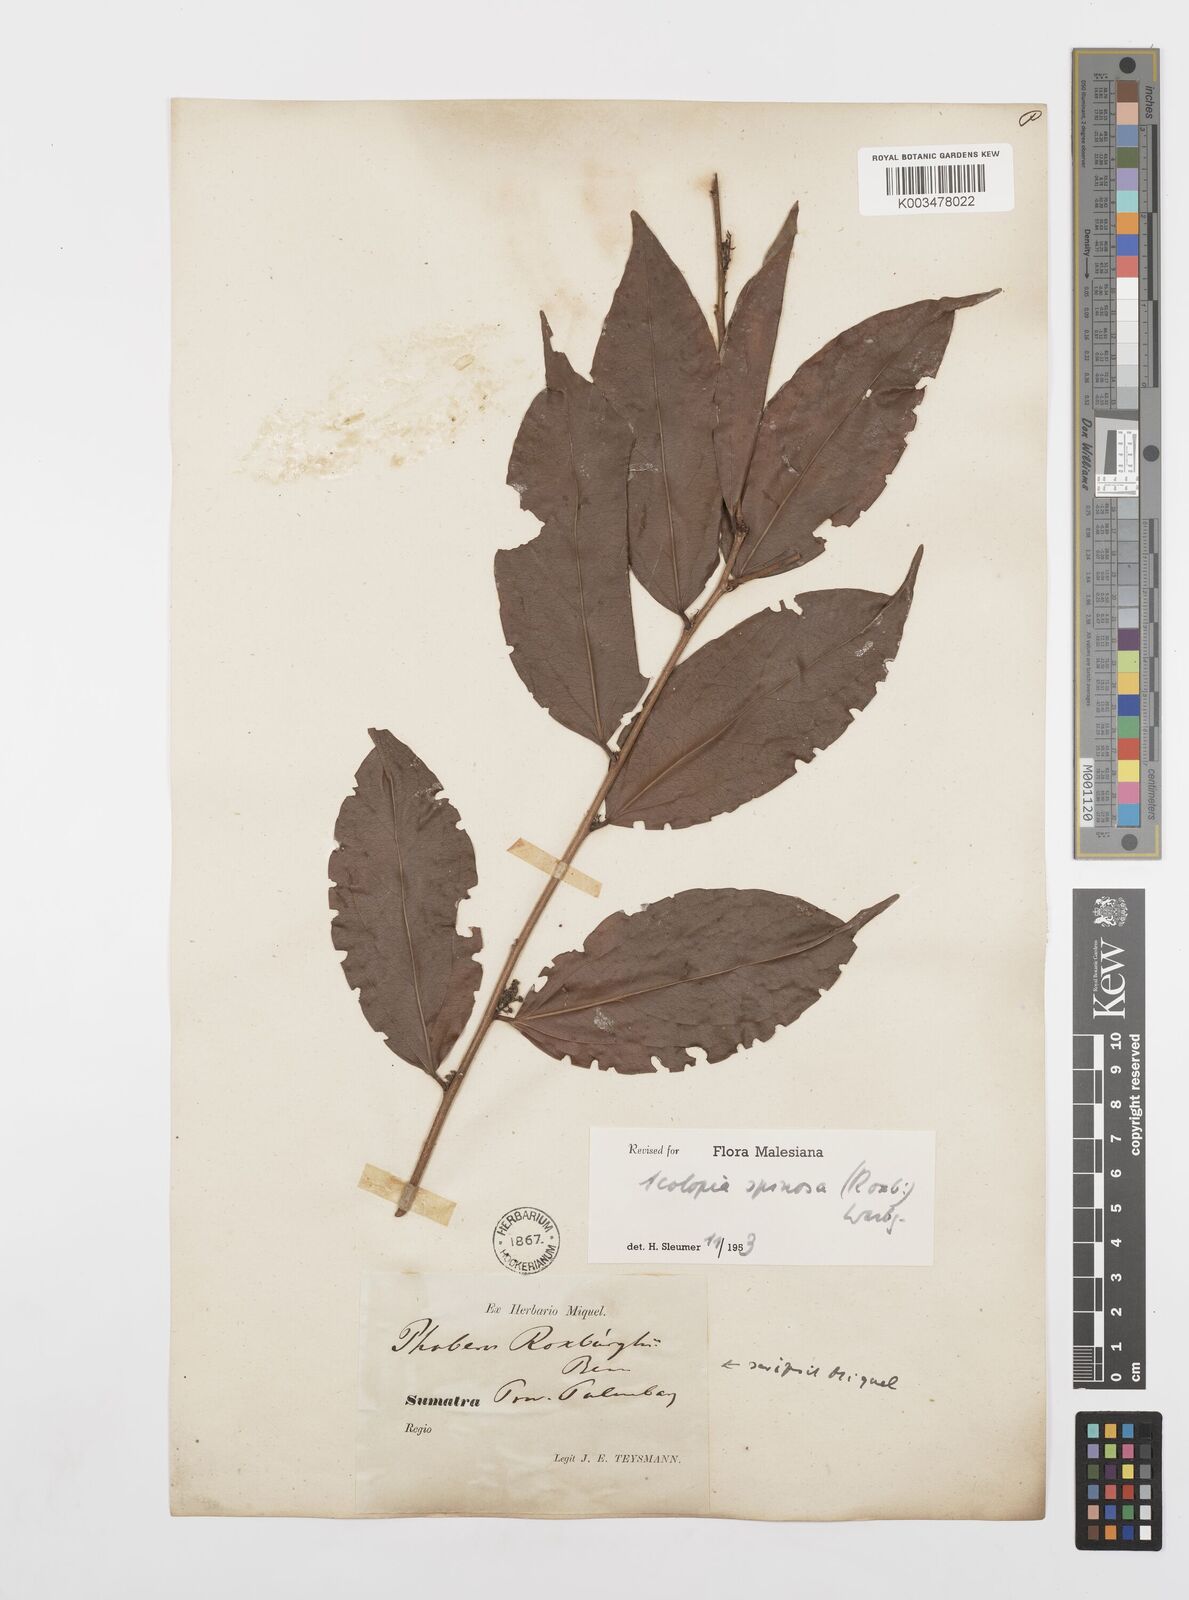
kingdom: Plantae
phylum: Tracheophyta
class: Magnoliopsida
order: Malpighiales
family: Salicaceae
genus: Scolopia
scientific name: Scolopia spinosa
